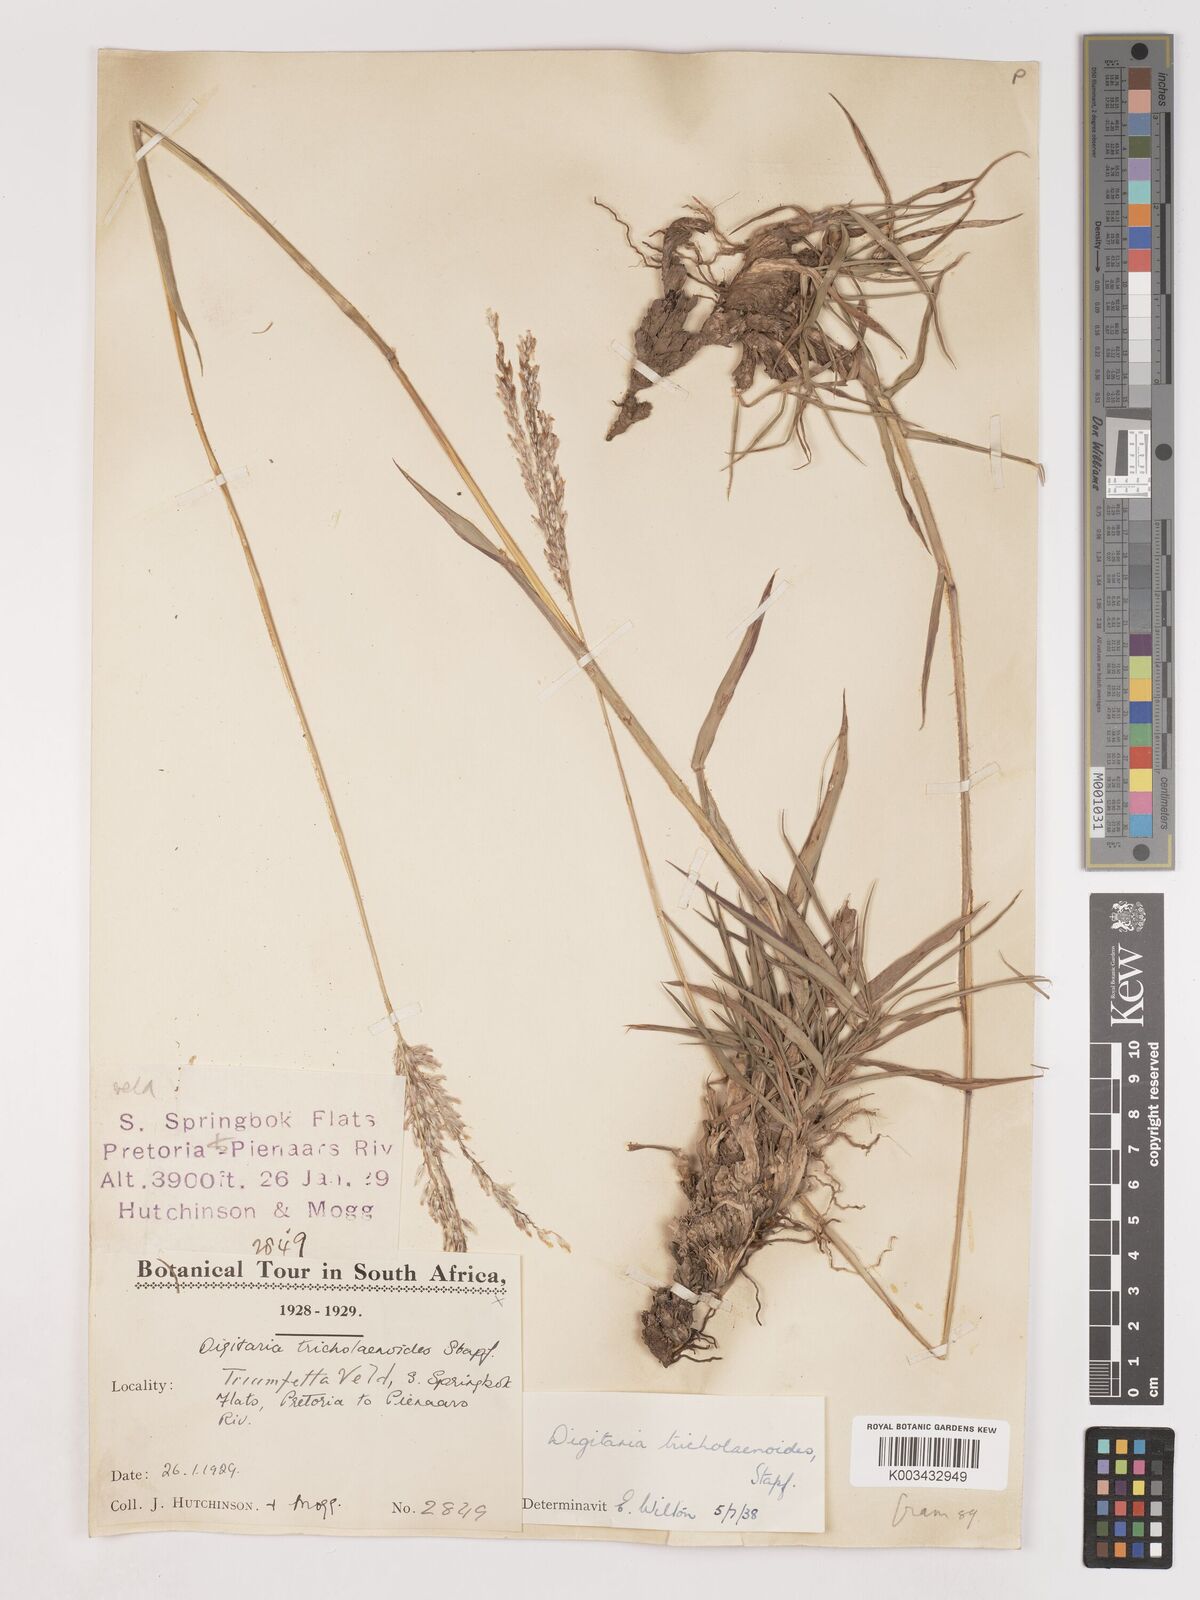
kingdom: Plantae
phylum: Tracheophyta
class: Liliopsida
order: Poales
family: Poaceae
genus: Digitaria
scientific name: Digitaria tricholaenoides
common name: Purple finger grass
